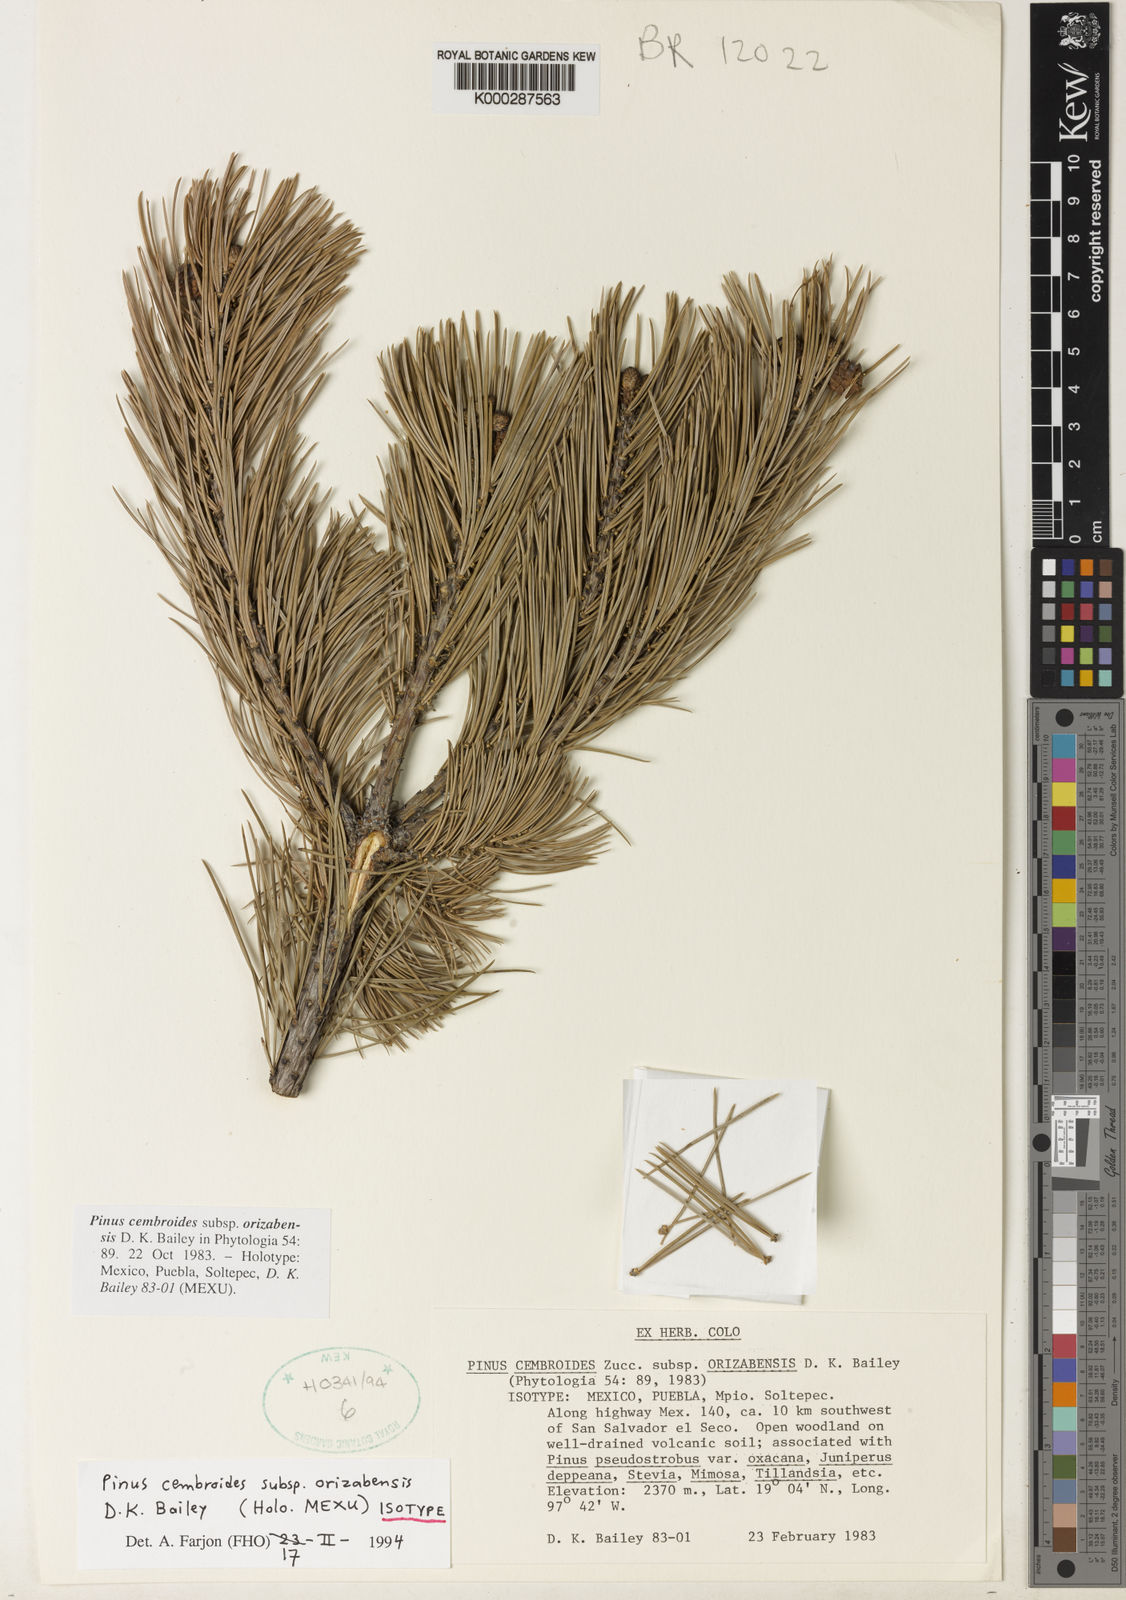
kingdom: Plantae
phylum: Tracheophyta
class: Pinopsida
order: Pinales
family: Pinaceae
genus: Pinus
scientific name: Pinus cembroides
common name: Mexican nut pine
